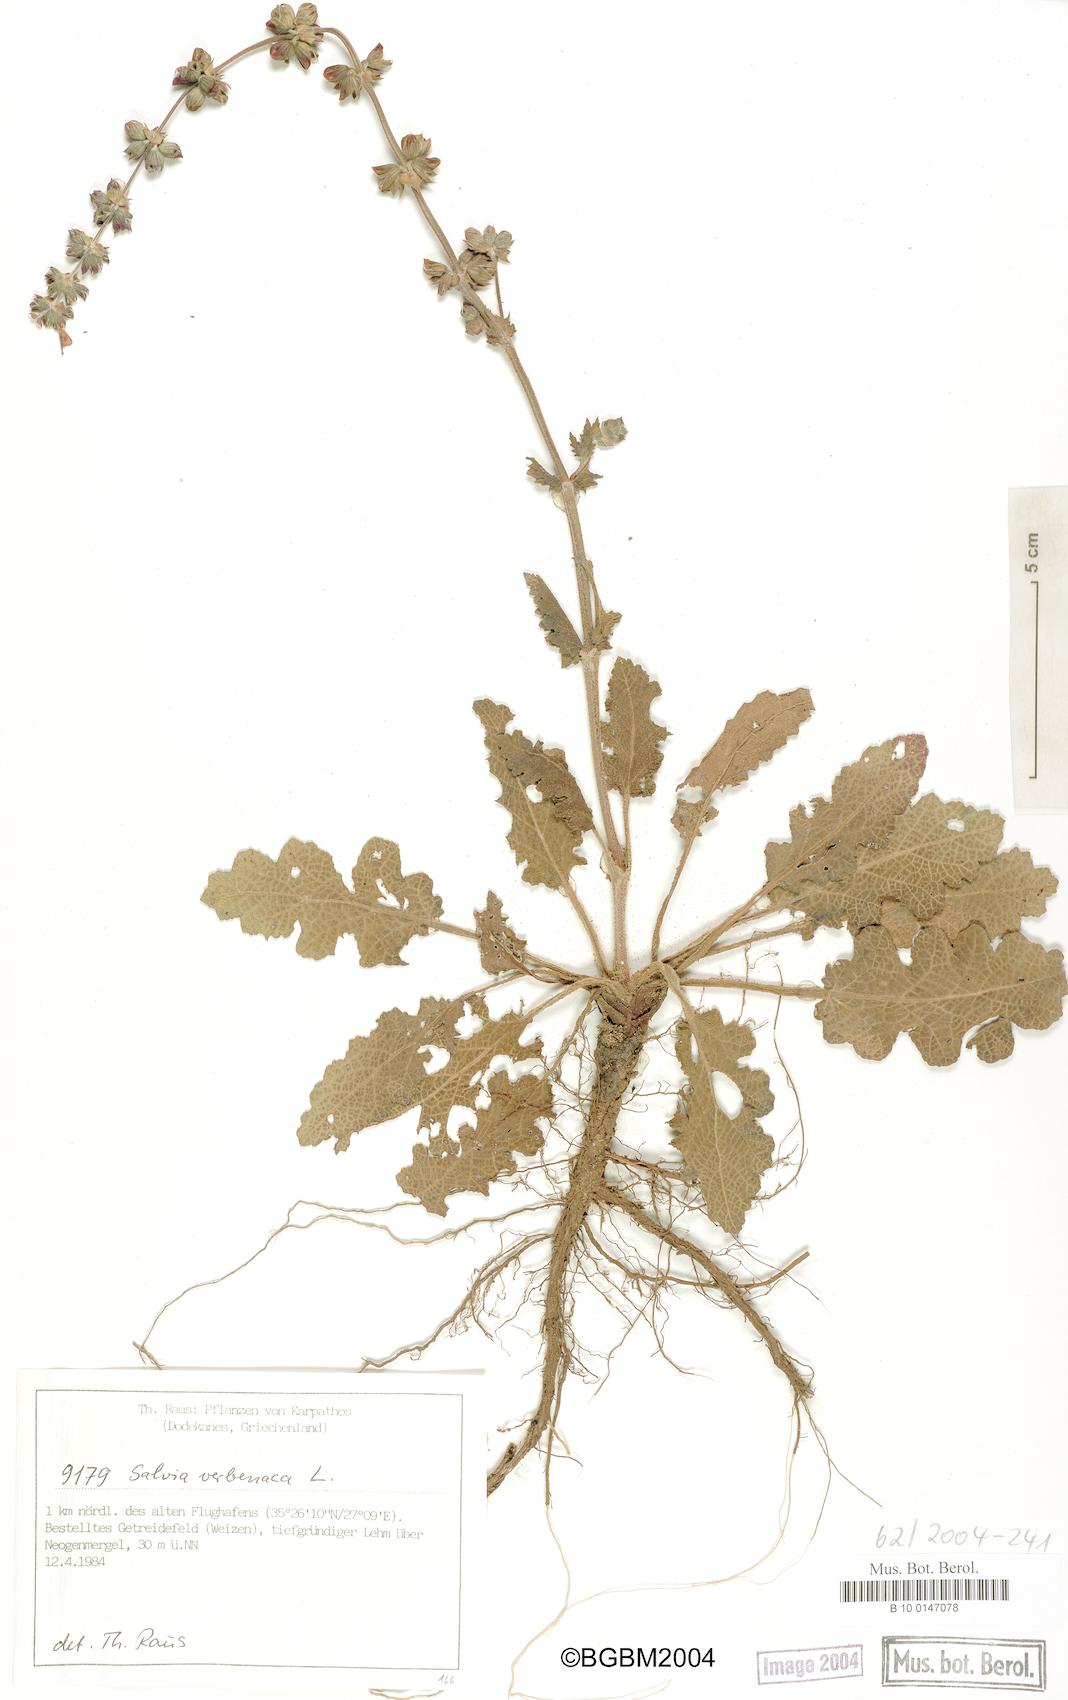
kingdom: Plantae
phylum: Tracheophyta
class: Magnoliopsida
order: Lamiales
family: Lamiaceae
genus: Salvia
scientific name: Salvia verbenaca
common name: Wild clary
